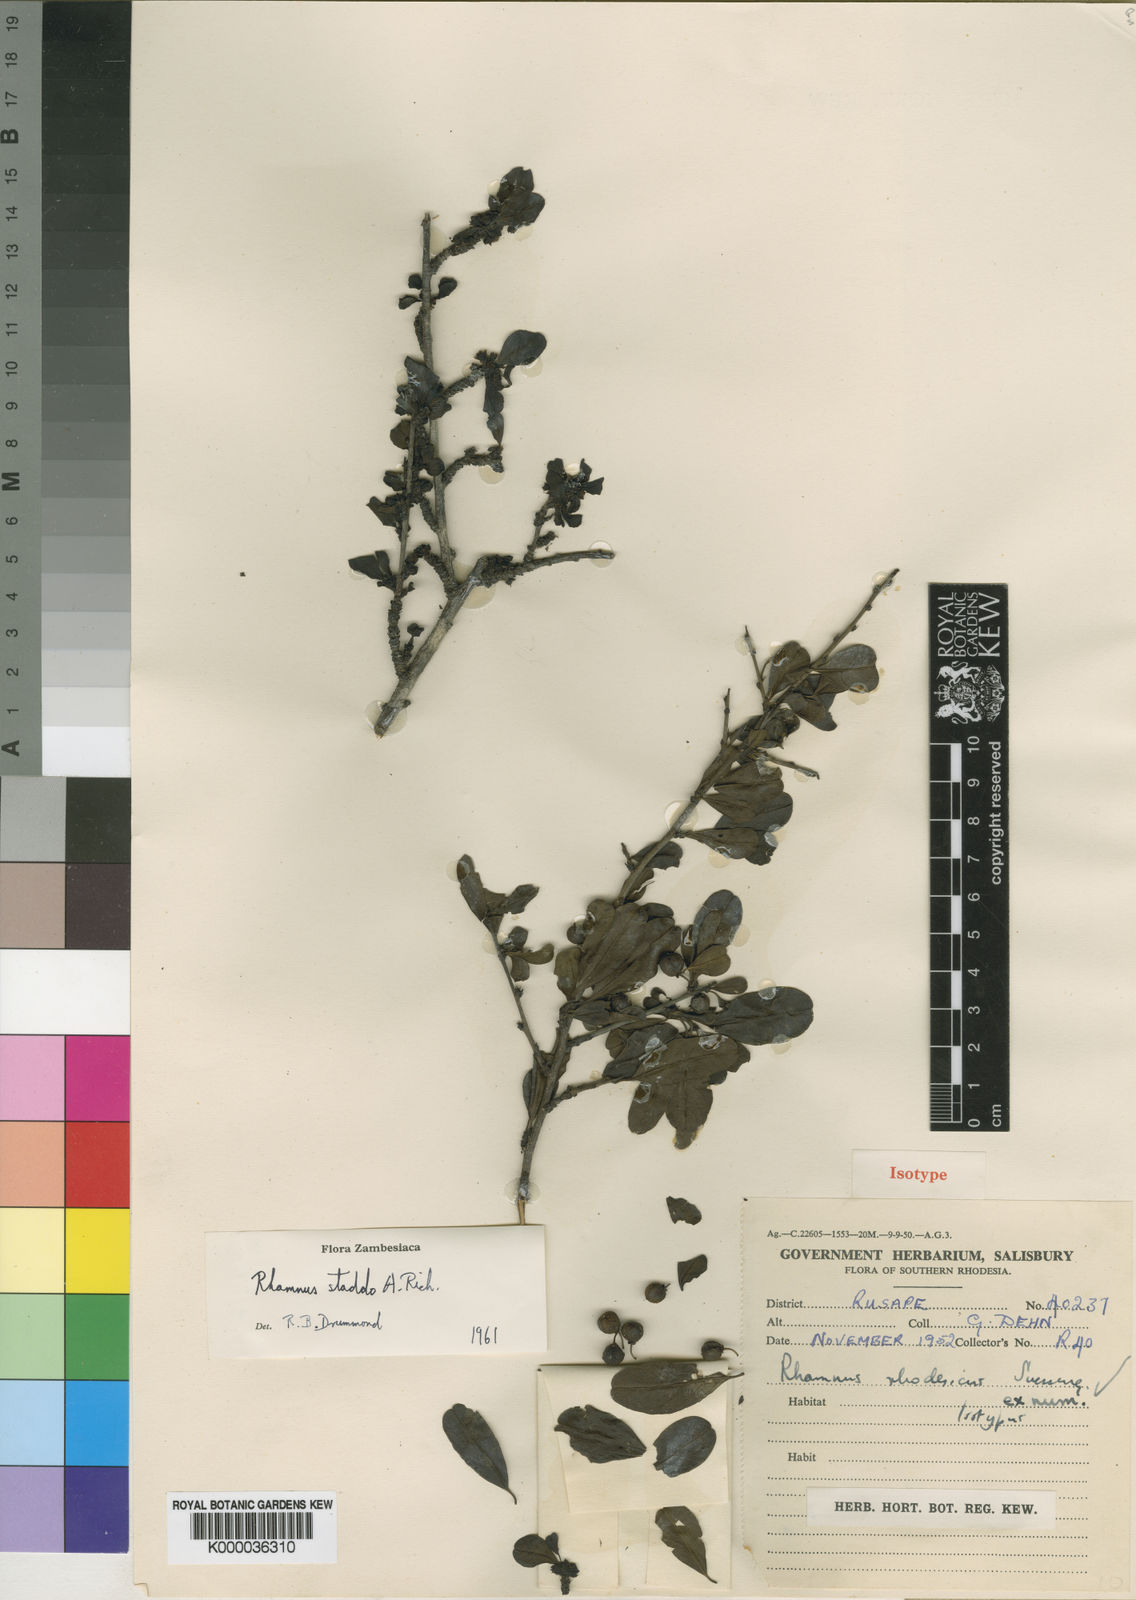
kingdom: Plantae
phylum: Tracheophyta
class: Magnoliopsida
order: Rosales
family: Rhamnaceae
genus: Rhamnus
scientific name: Rhamnus staddo
